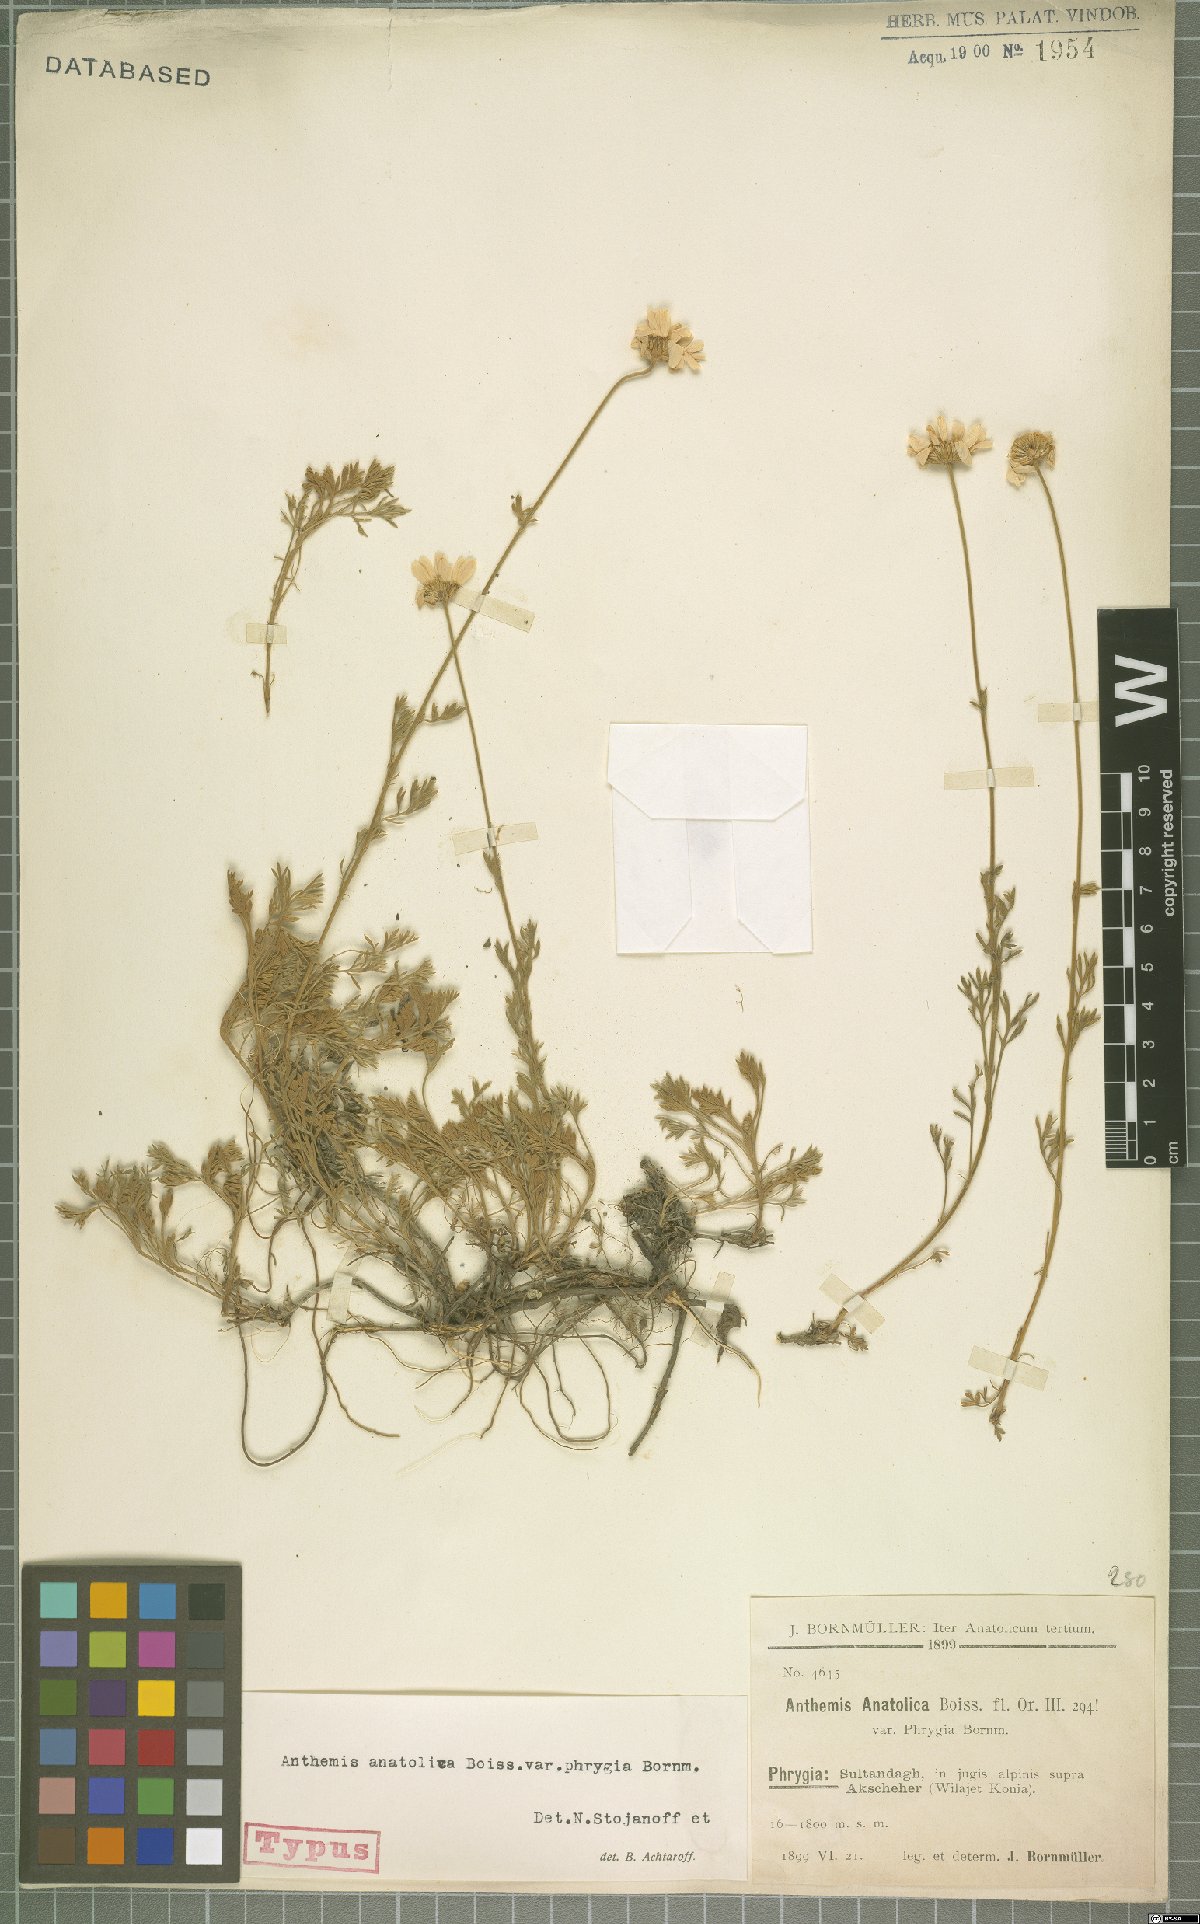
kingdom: Plantae
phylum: Tracheophyta
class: Magnoliopsida
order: Asterales
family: Asteraceae
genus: Anthemis
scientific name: Anthemis cretica
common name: Mountain dog-daisy
